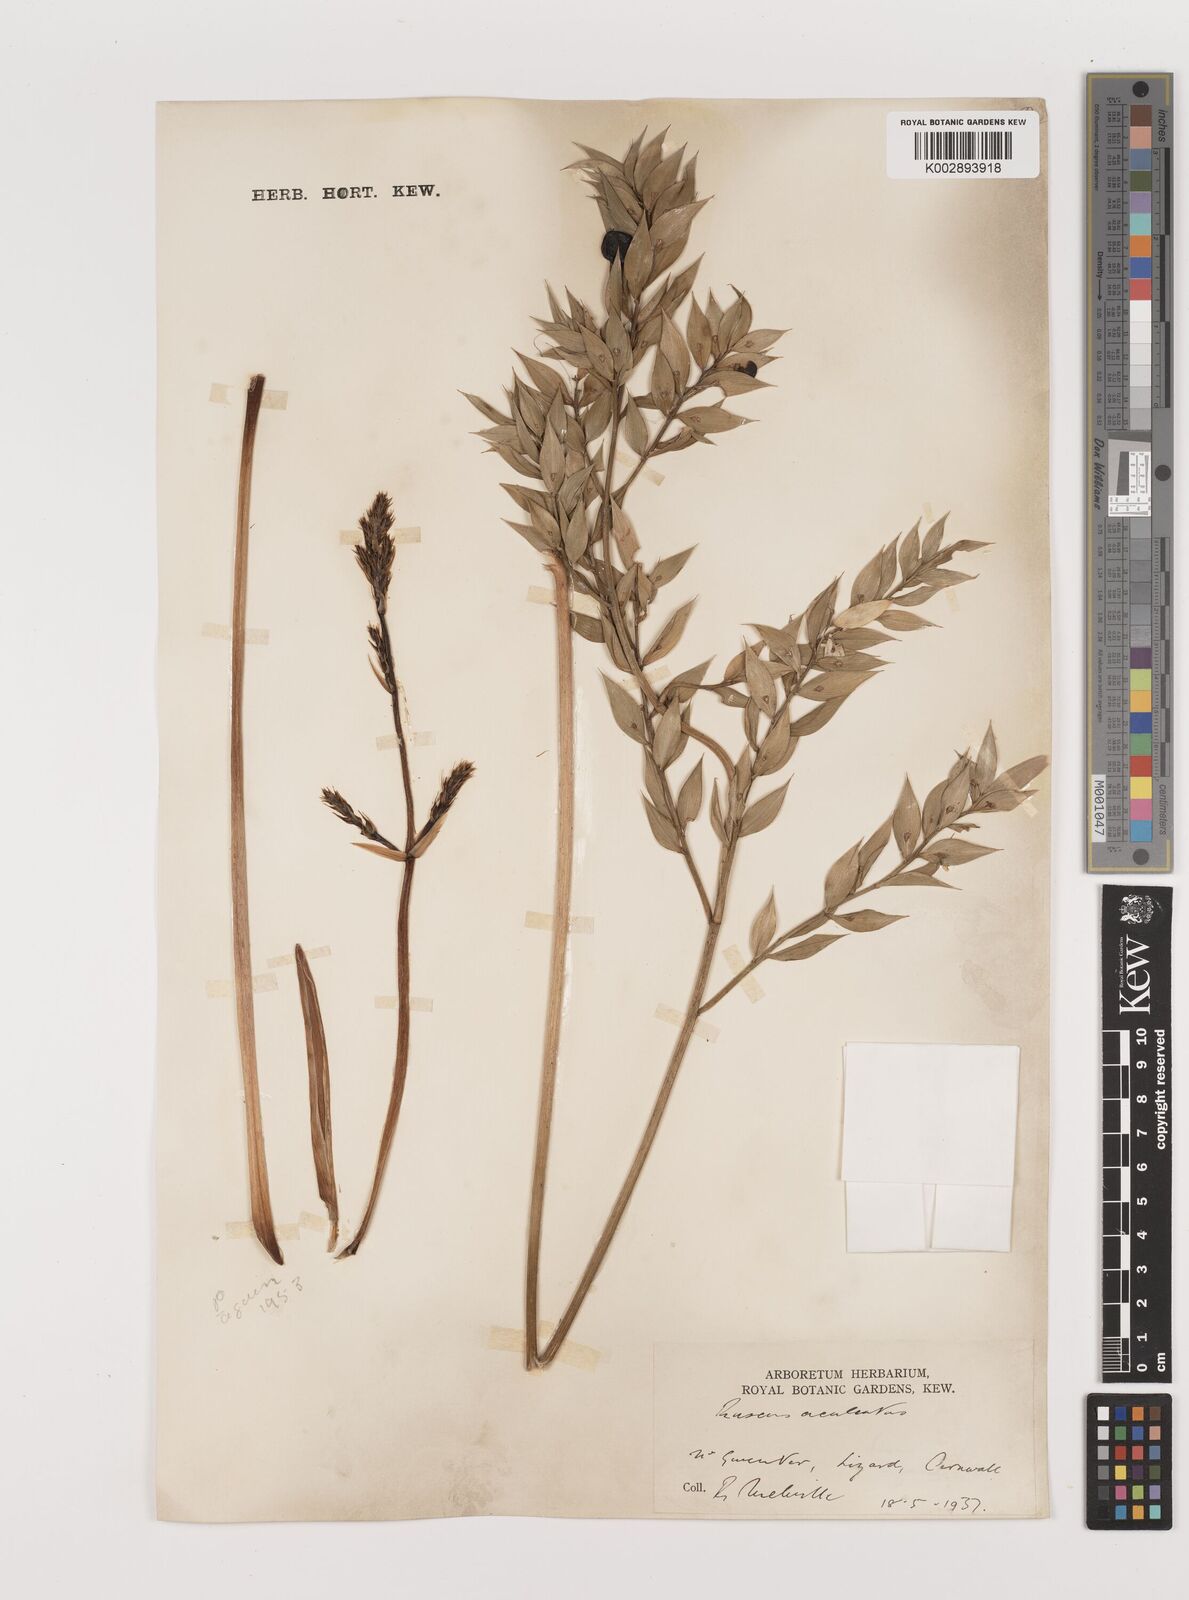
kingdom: Plantae
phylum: Tracheophyta
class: Liliopsida
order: Asparagales
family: Asparagaceae
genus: Ruscus
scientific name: Ruscus aculeatus
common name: Butcher's-broom
